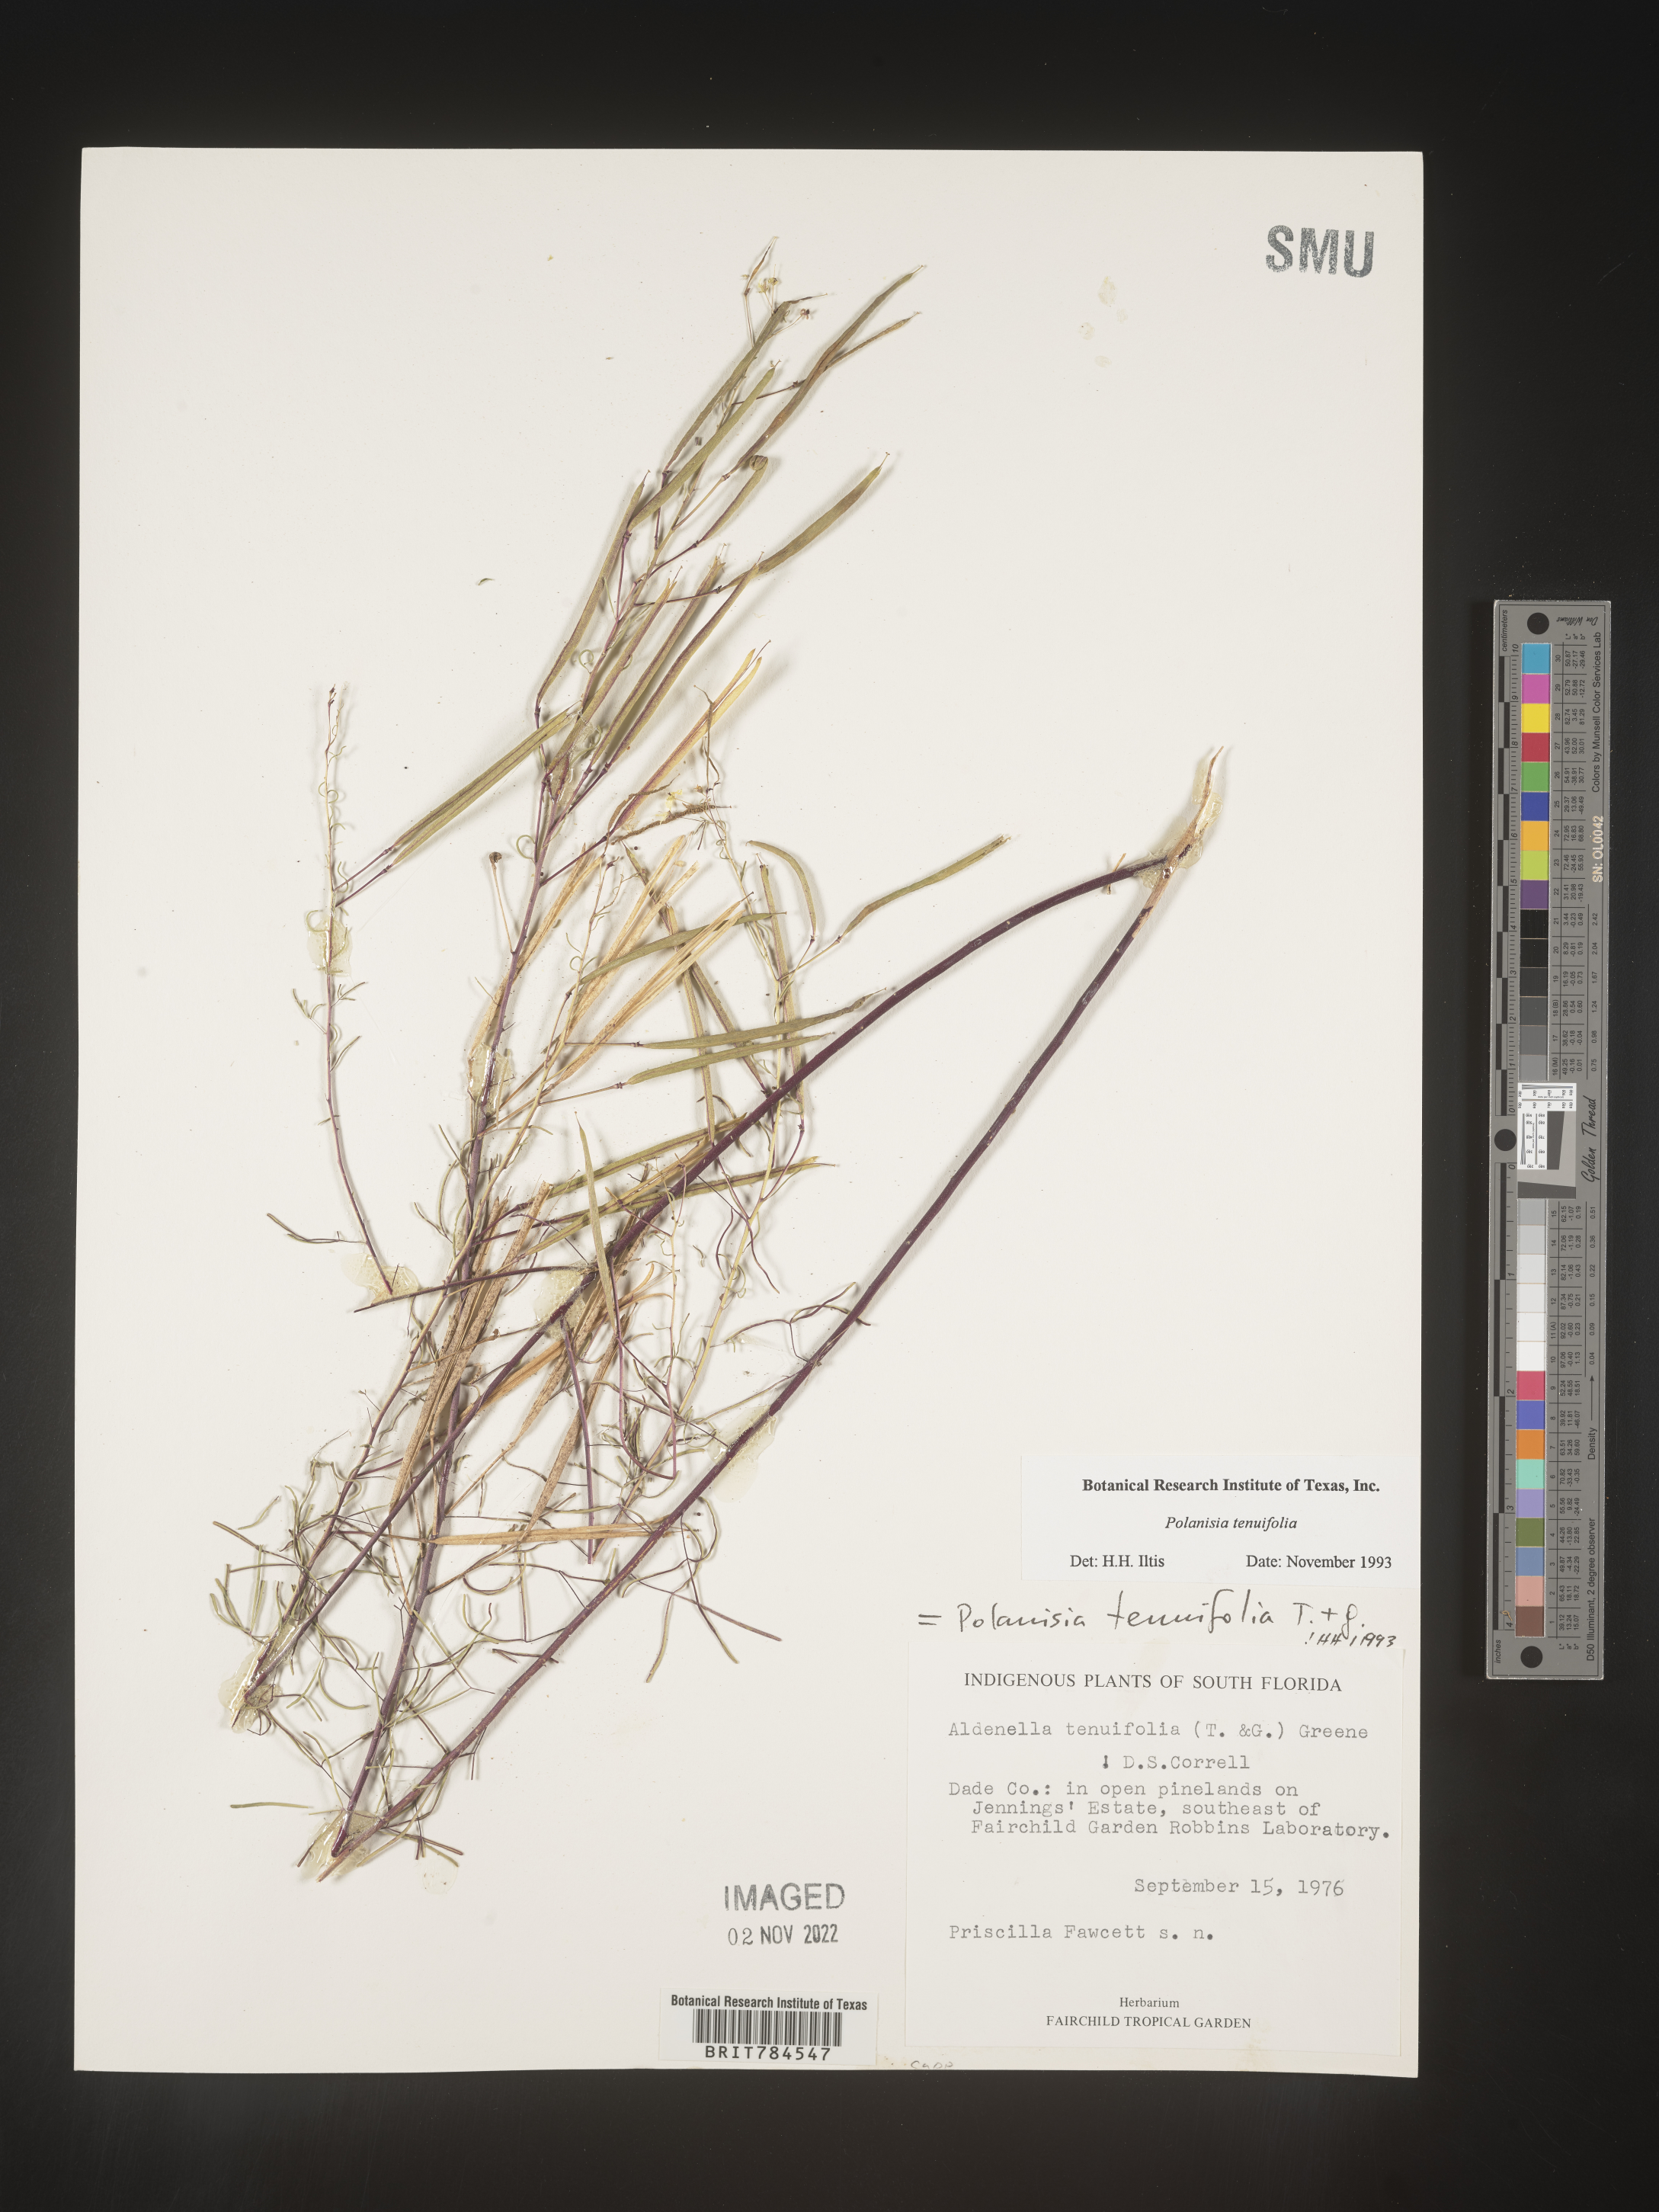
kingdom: Plantae
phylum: Tracheophyta
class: Magnoliopsida
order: Brassicales
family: Cleomaceae
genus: Polanisia
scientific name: Polanisia
